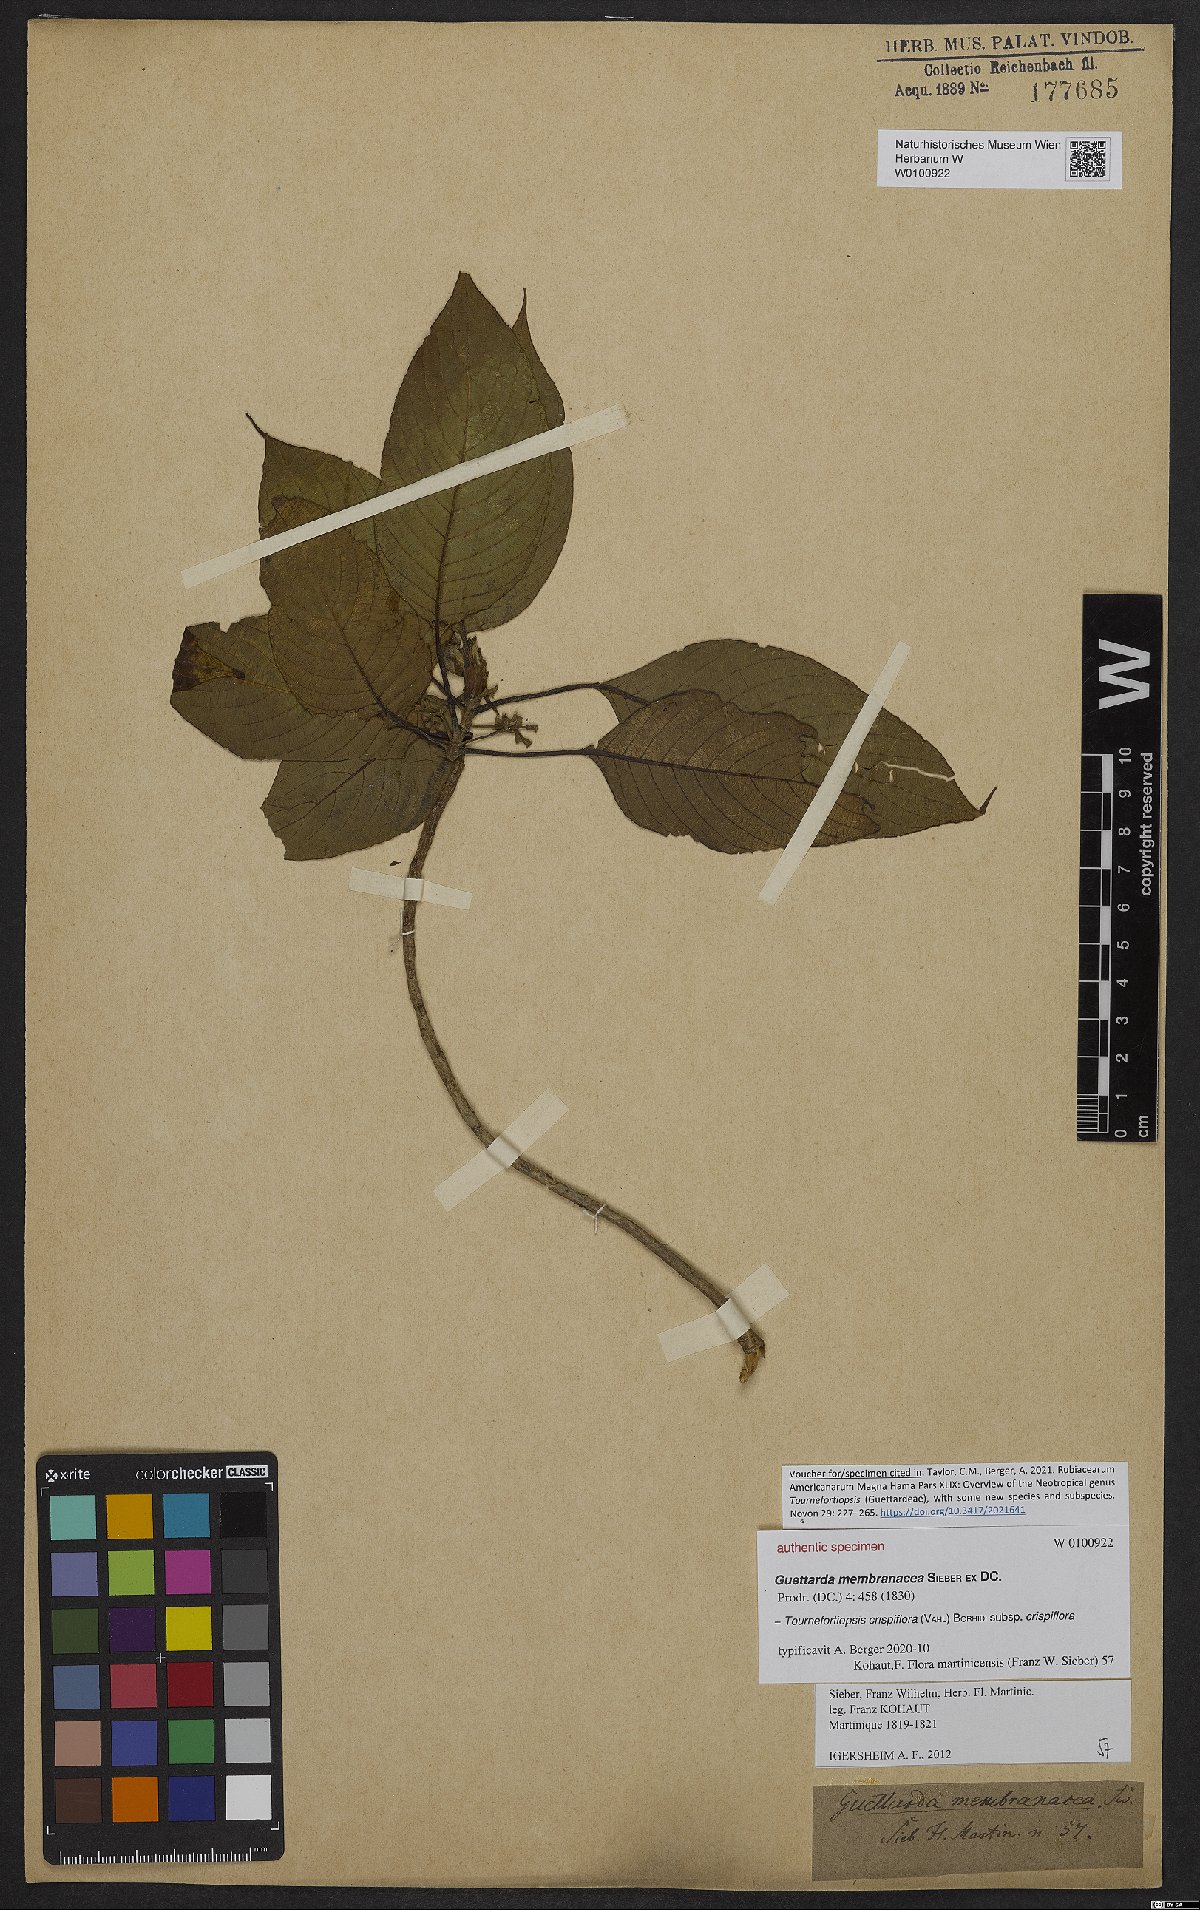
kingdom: Plantae
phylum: Tracheophyta
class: Magnoliopsida
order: Gentianales
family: Rubiaceae
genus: Tournefortiopsis
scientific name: Tournefortiopsis crispiflora
